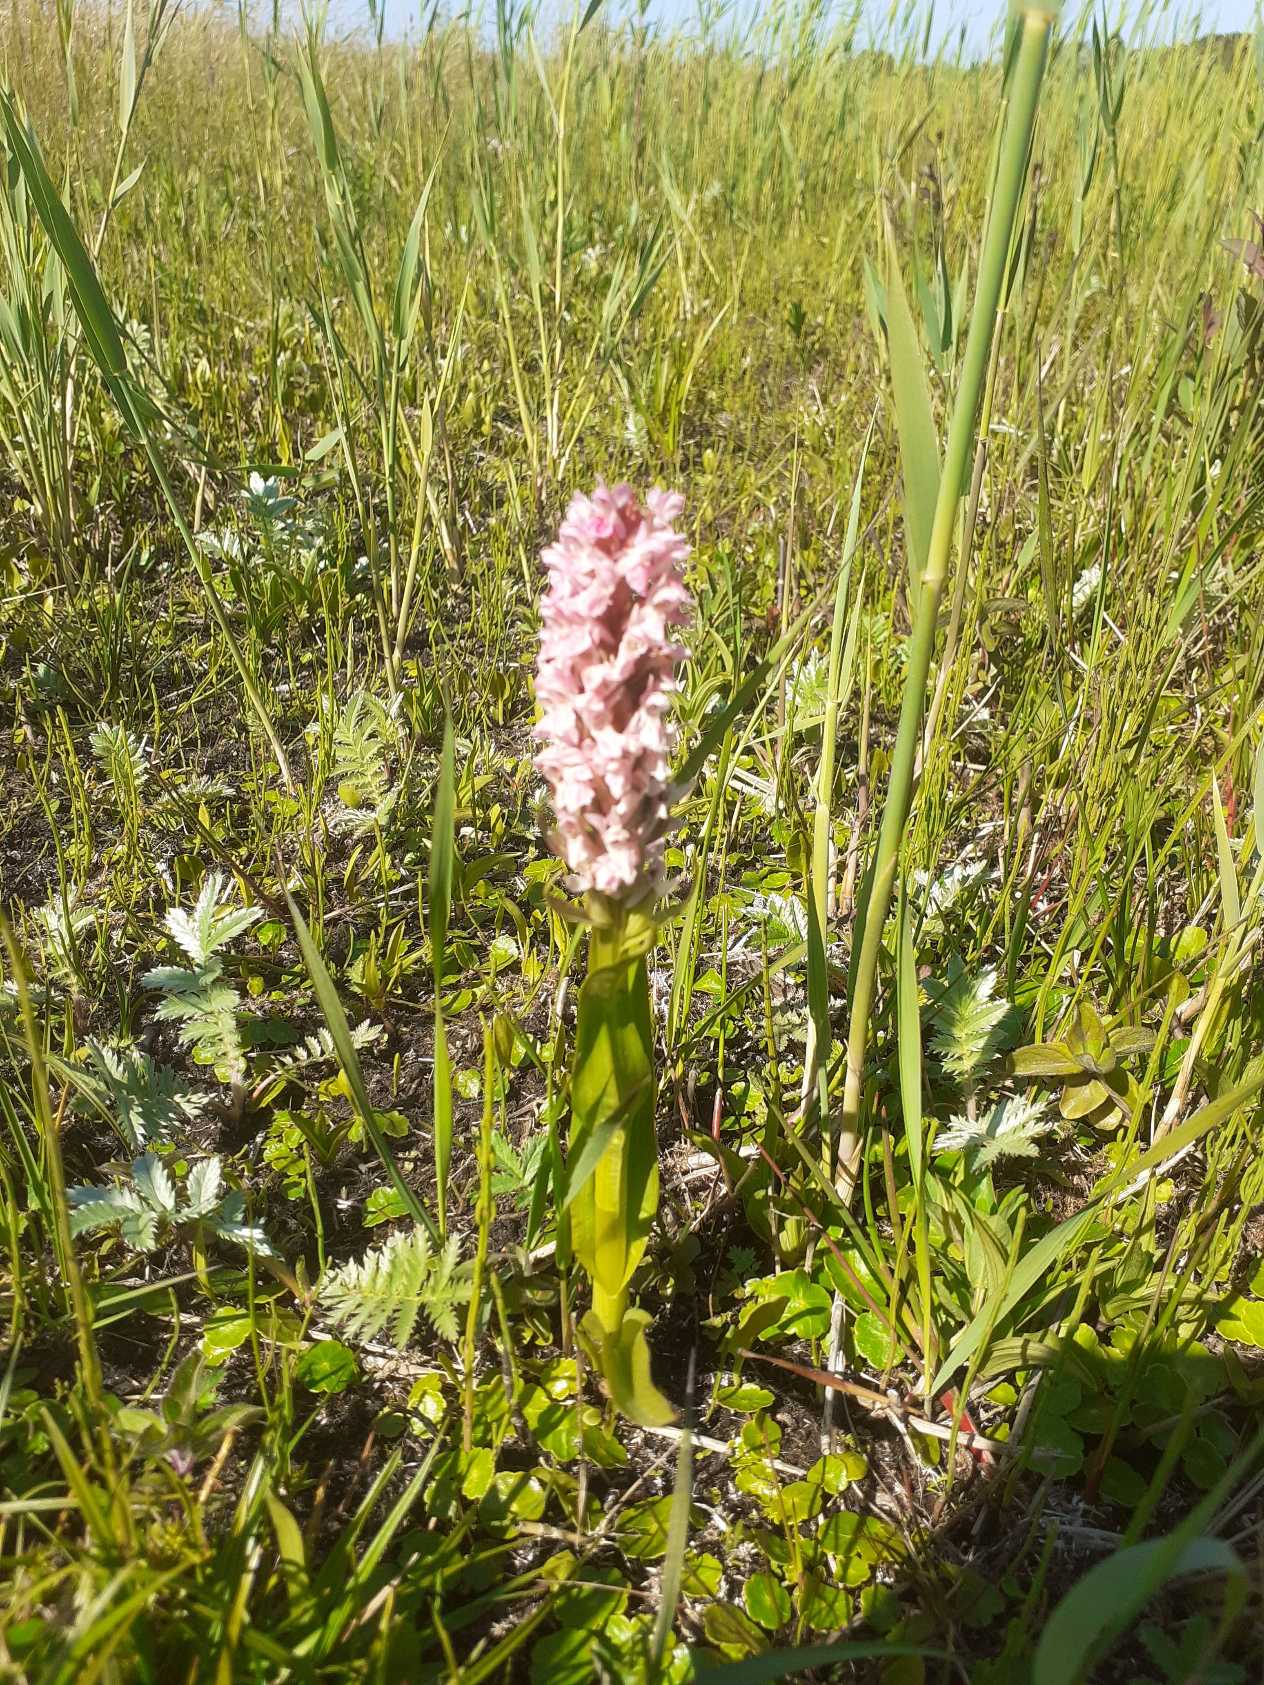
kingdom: Plantae
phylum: Tracheophyta
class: Liliopsida
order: Asparagales
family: Orchidaceae
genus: Dactylorhiza
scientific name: Dactylorhiza incarnata
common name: Kødfarvet gøgeurt
